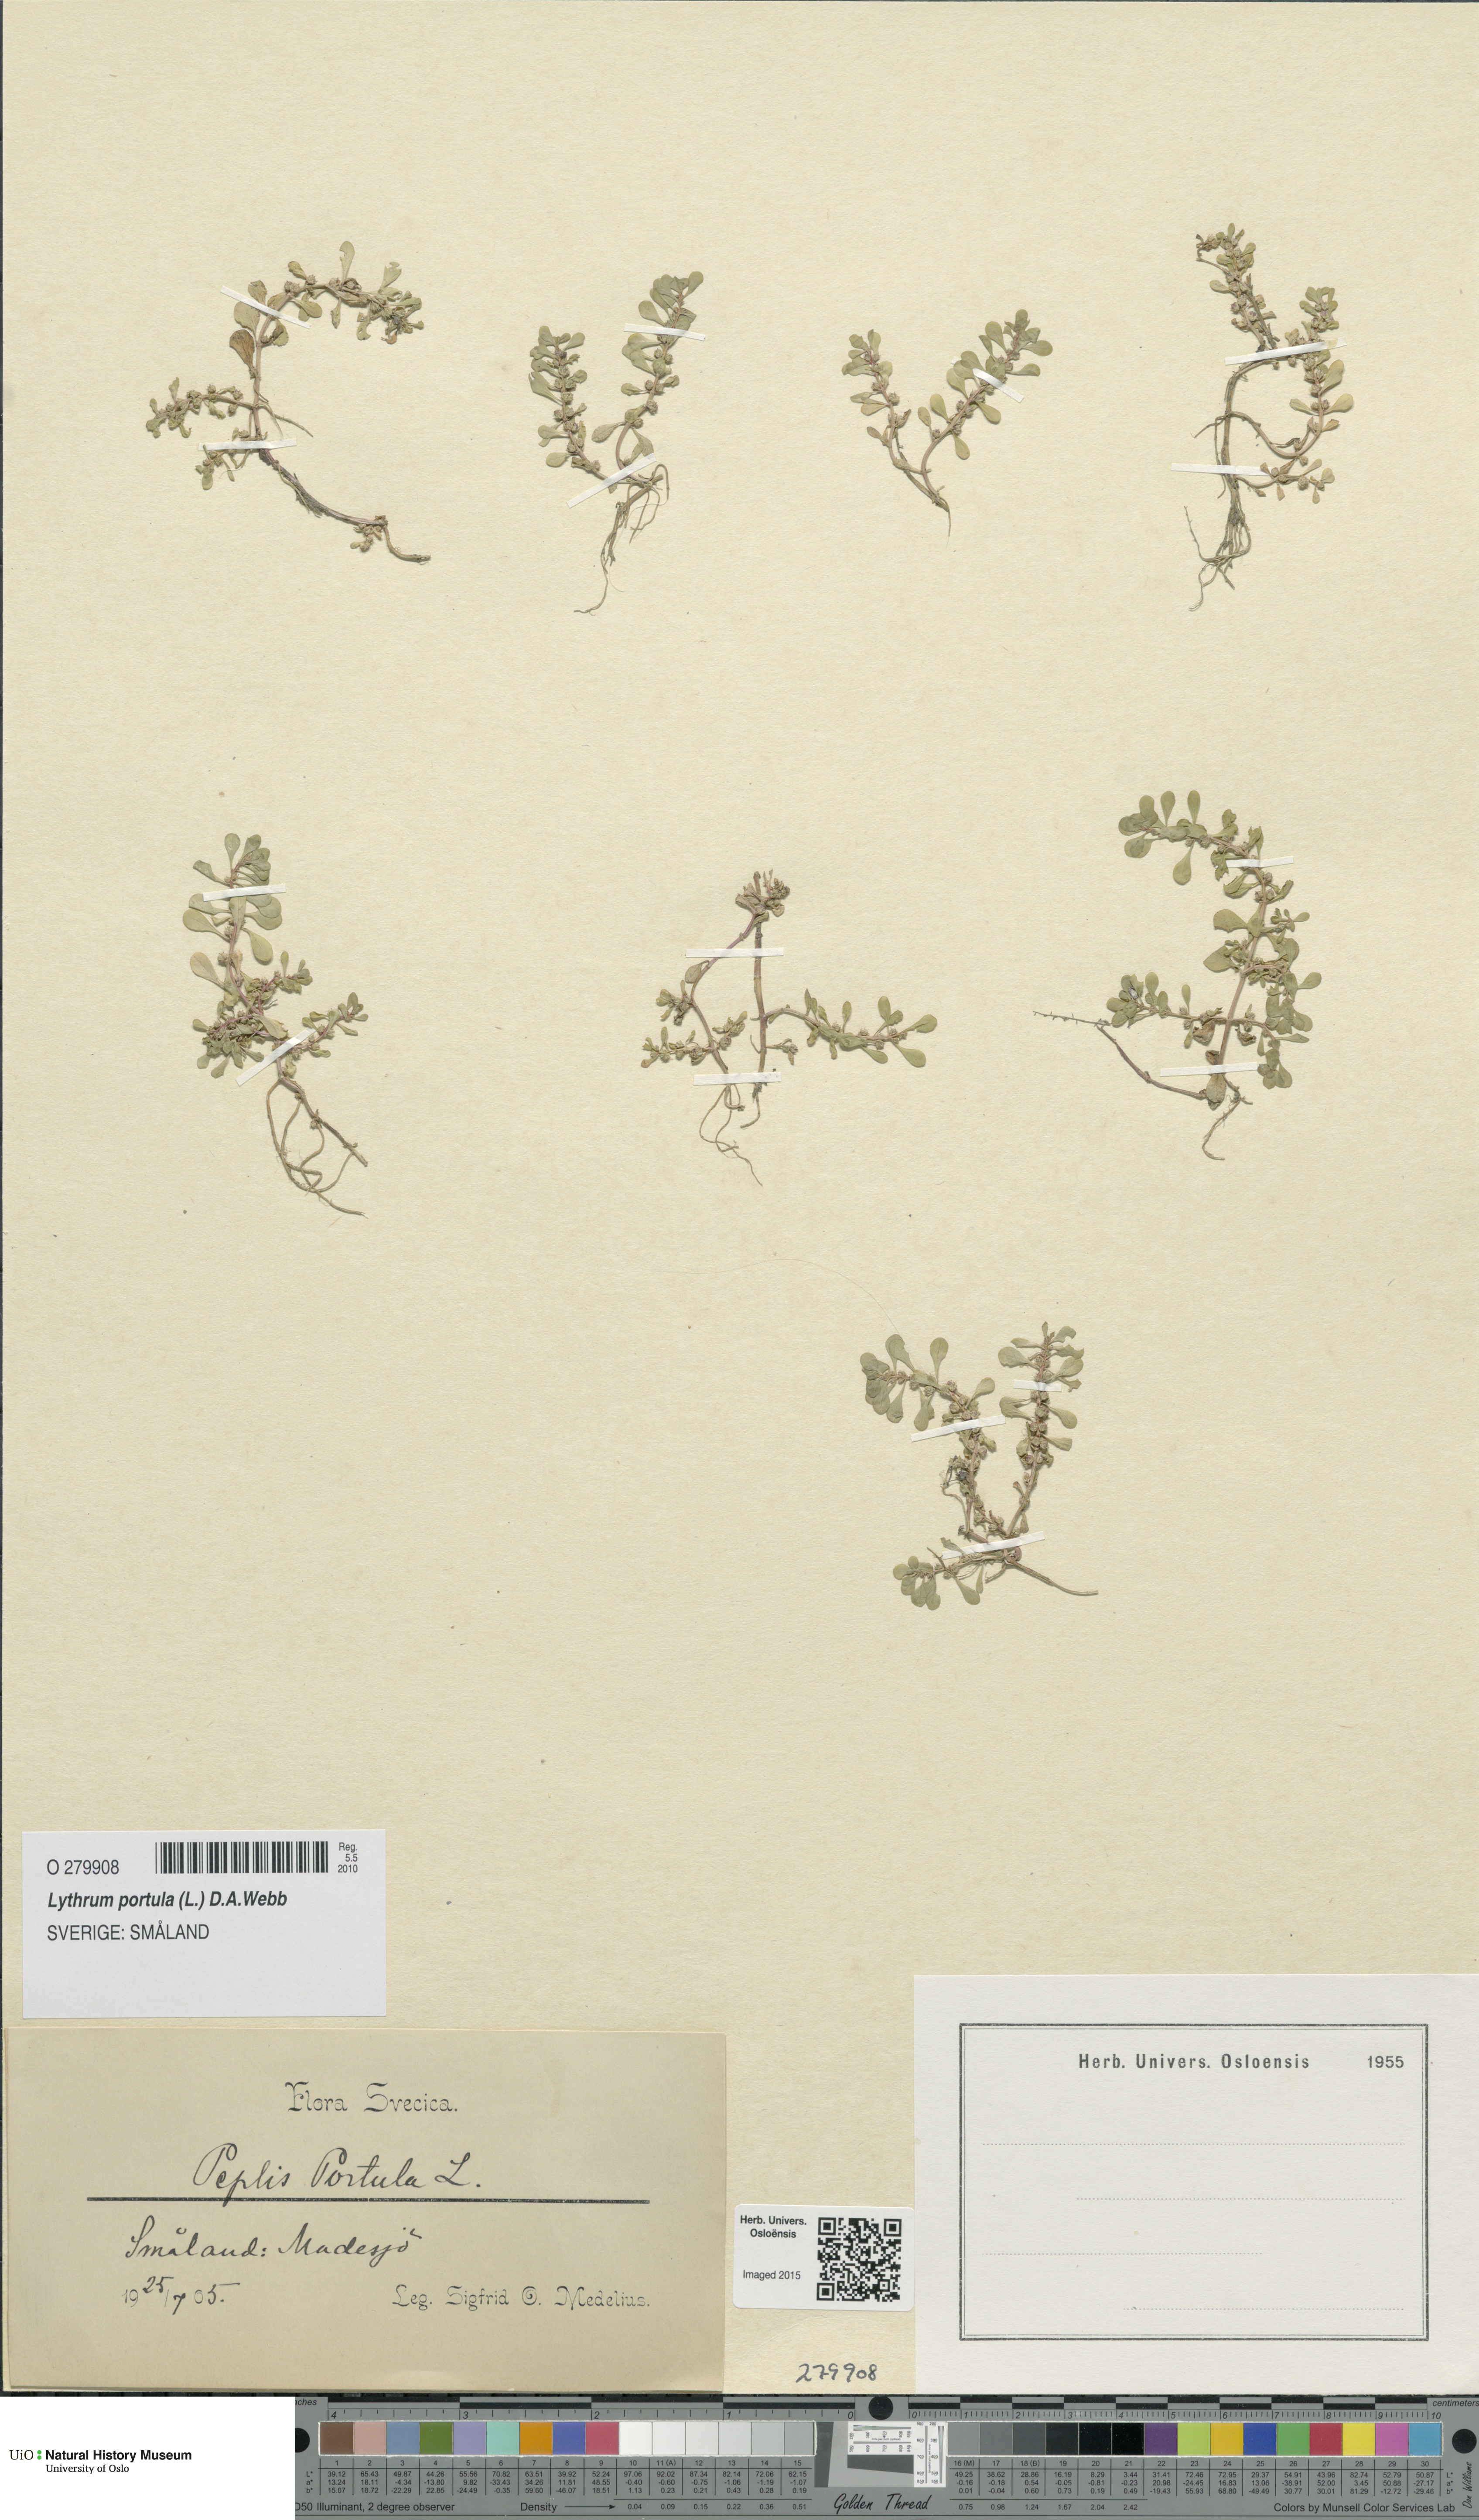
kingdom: Plantae
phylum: Tracheophyta
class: Magnoliopsida
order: Myrtales
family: Lythraceae
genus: Lythrum
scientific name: Lythrum portula
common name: Water purslane
